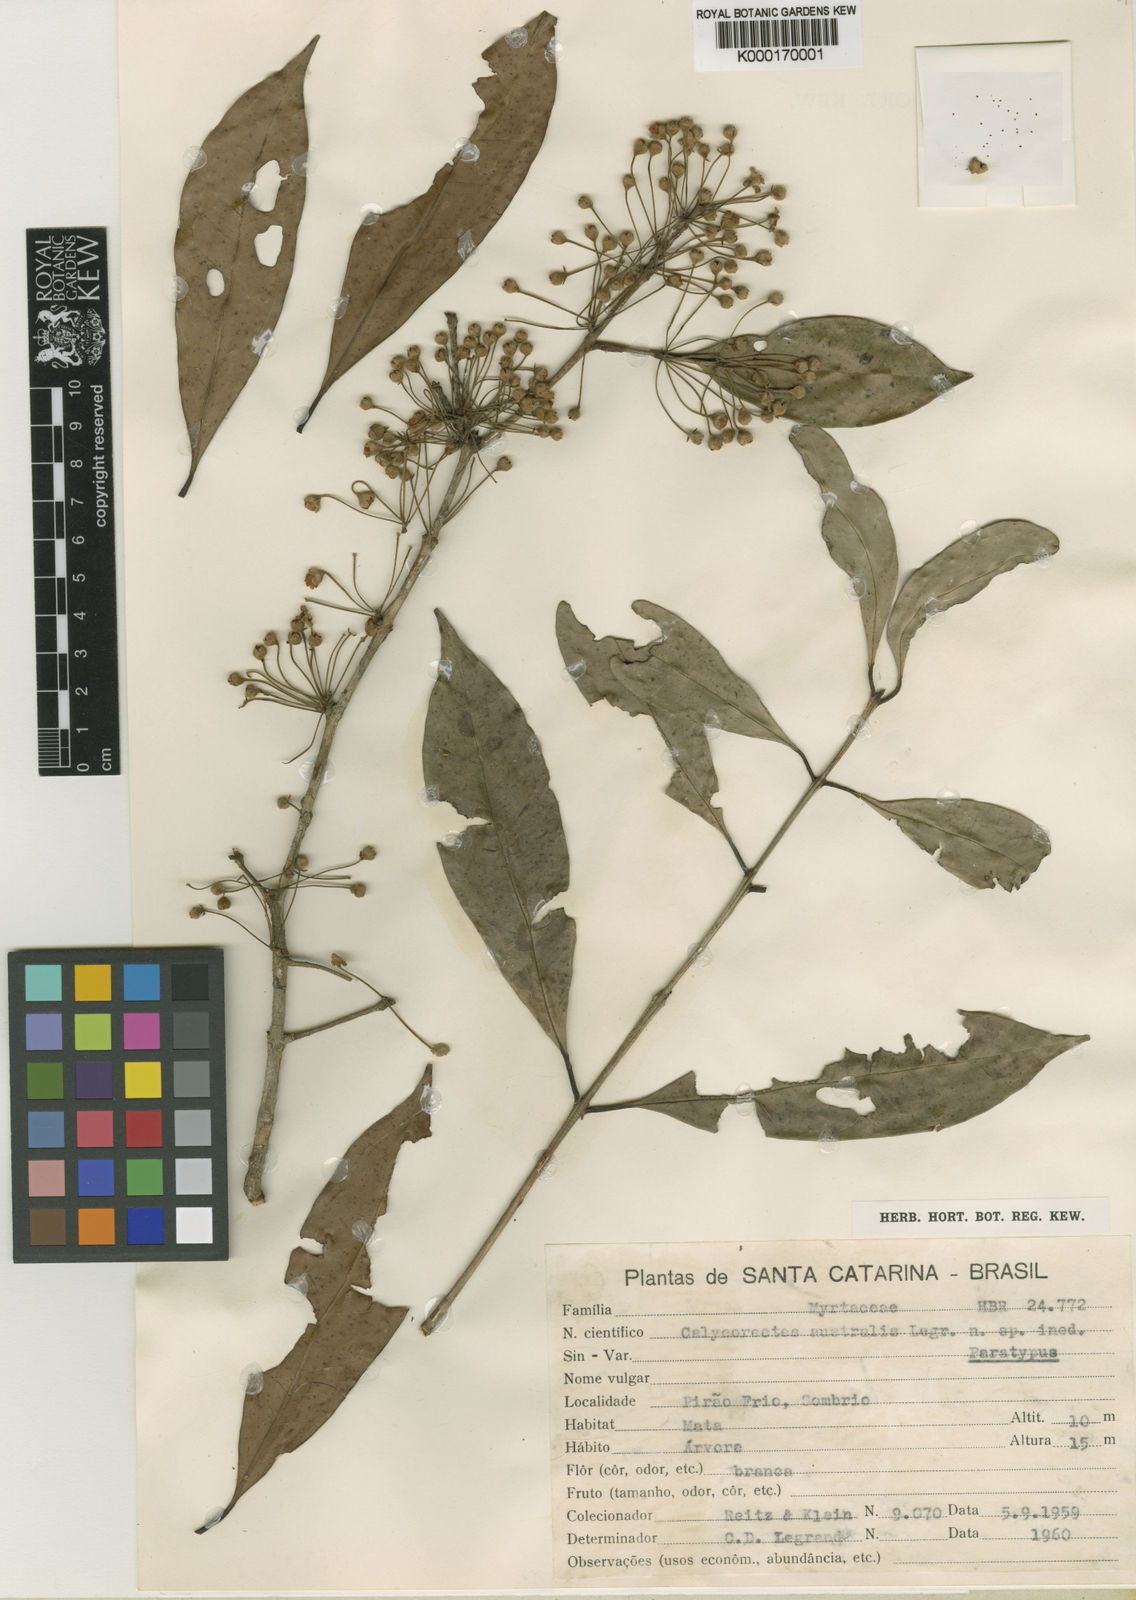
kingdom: Plantae
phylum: Tracheophyta
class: Magnoliopsida
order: Myrtales
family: Myrtaceae
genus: Eugenia
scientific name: Eugenia neoaustralis
